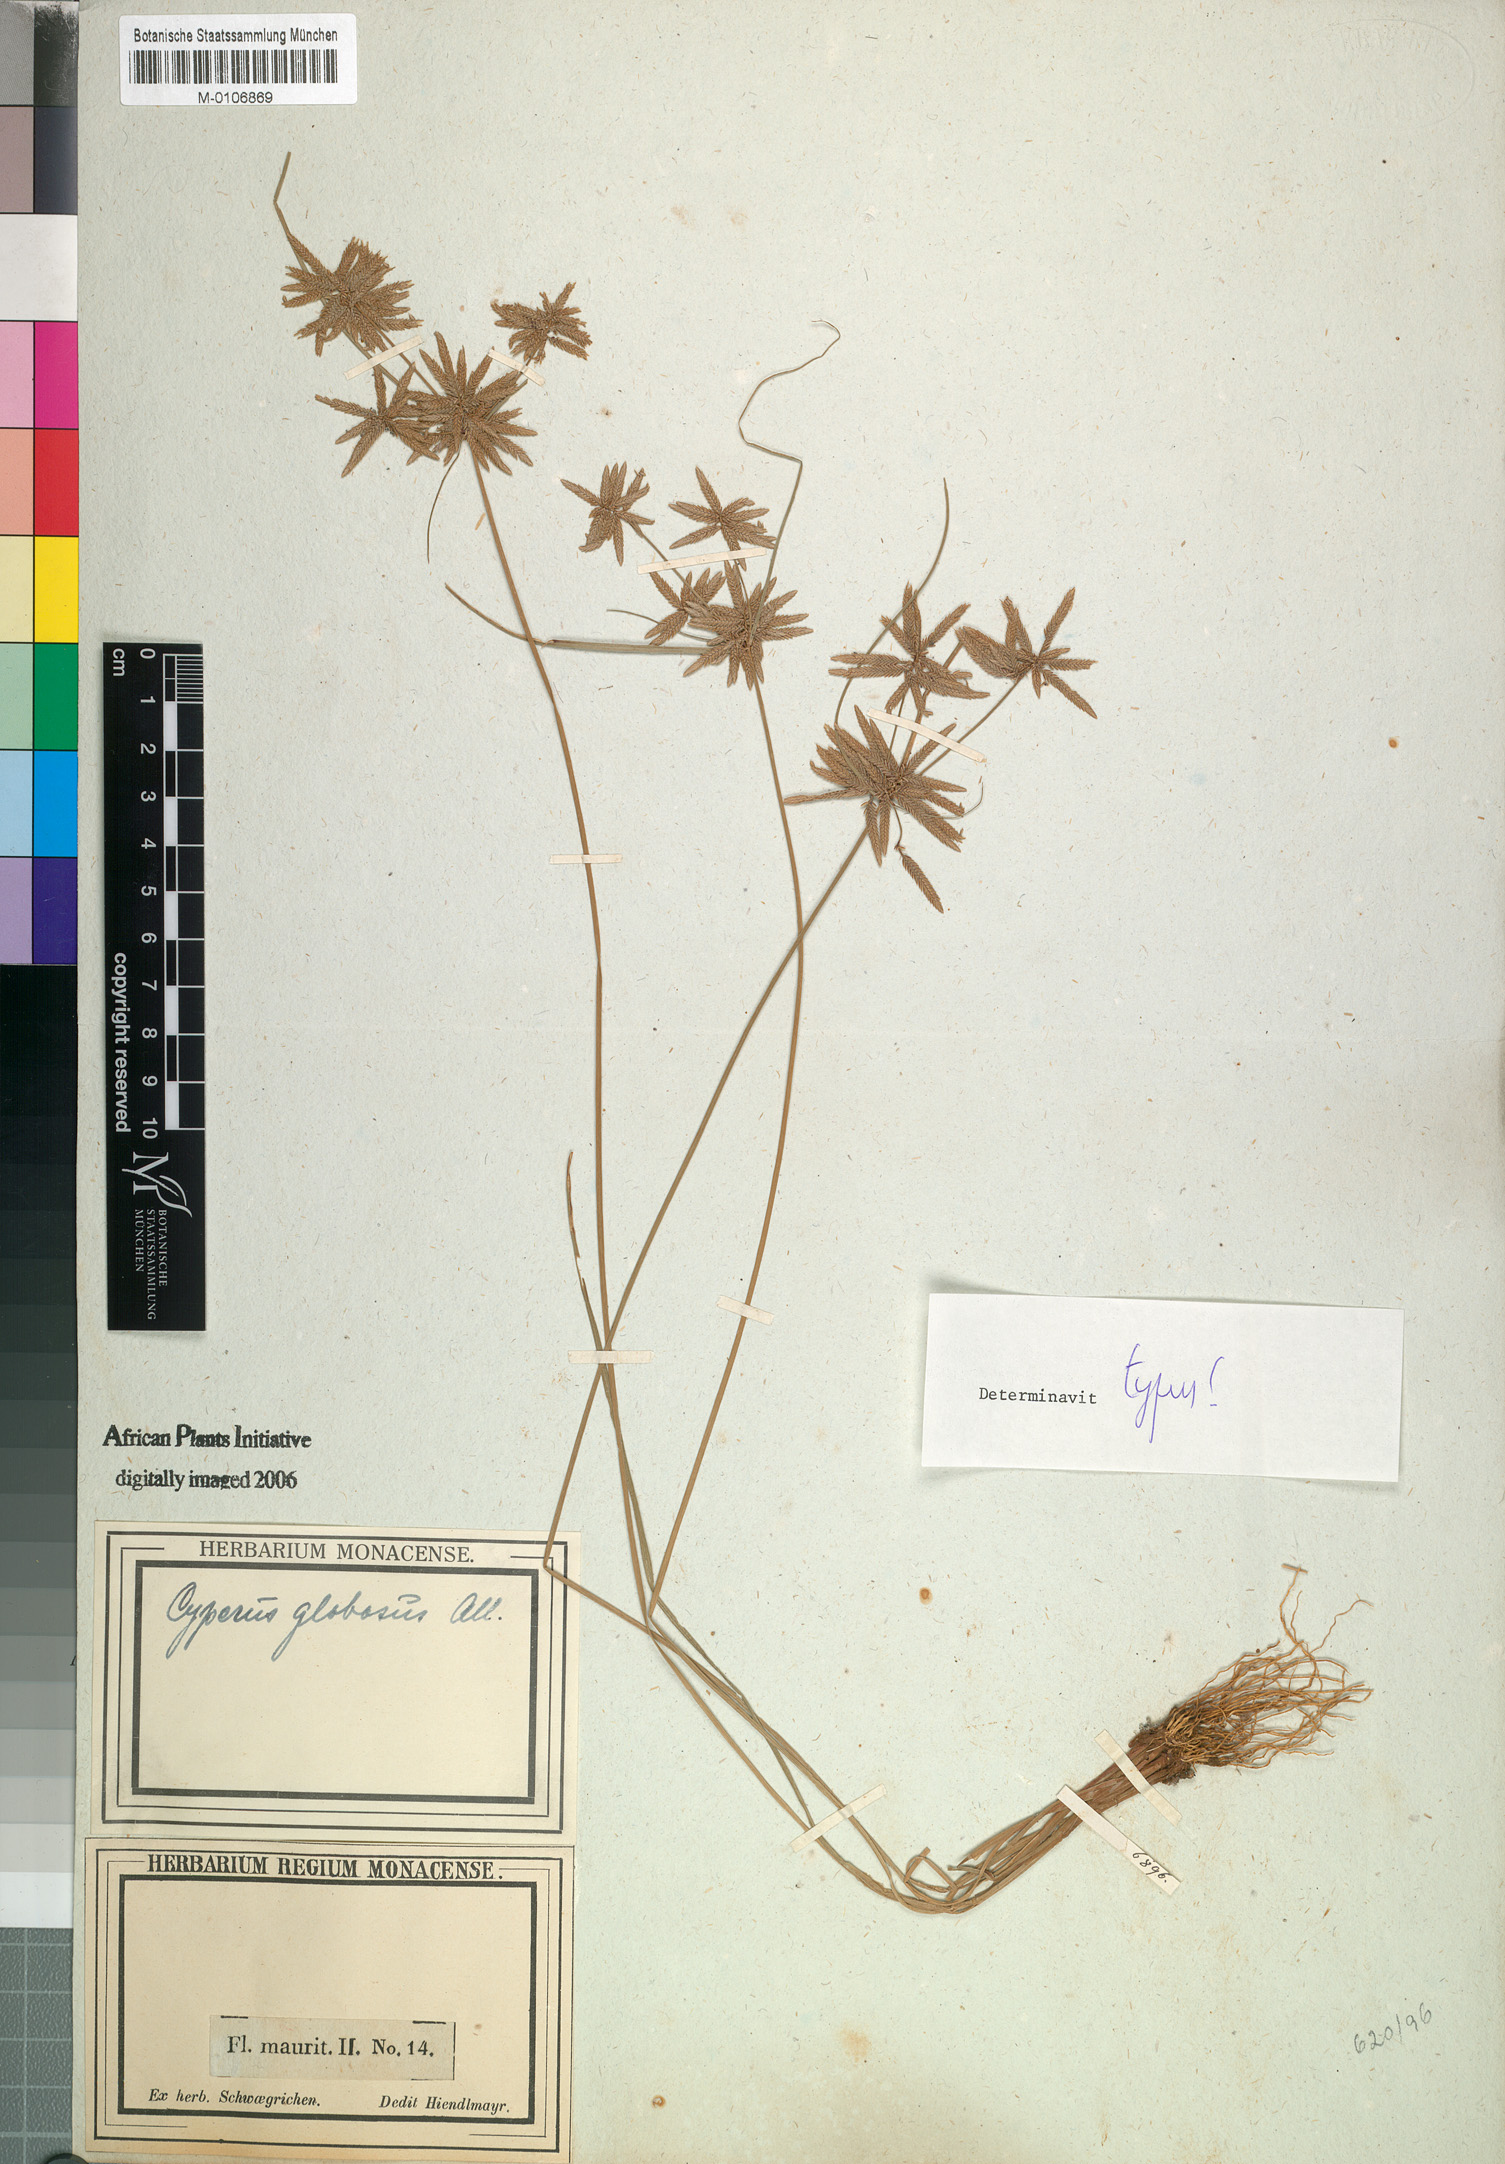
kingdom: Plantae
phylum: Tracheophyta
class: Liliopsida
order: Poales
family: Cyperaceae
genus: Cyperus
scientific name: Cyperus flavidus
